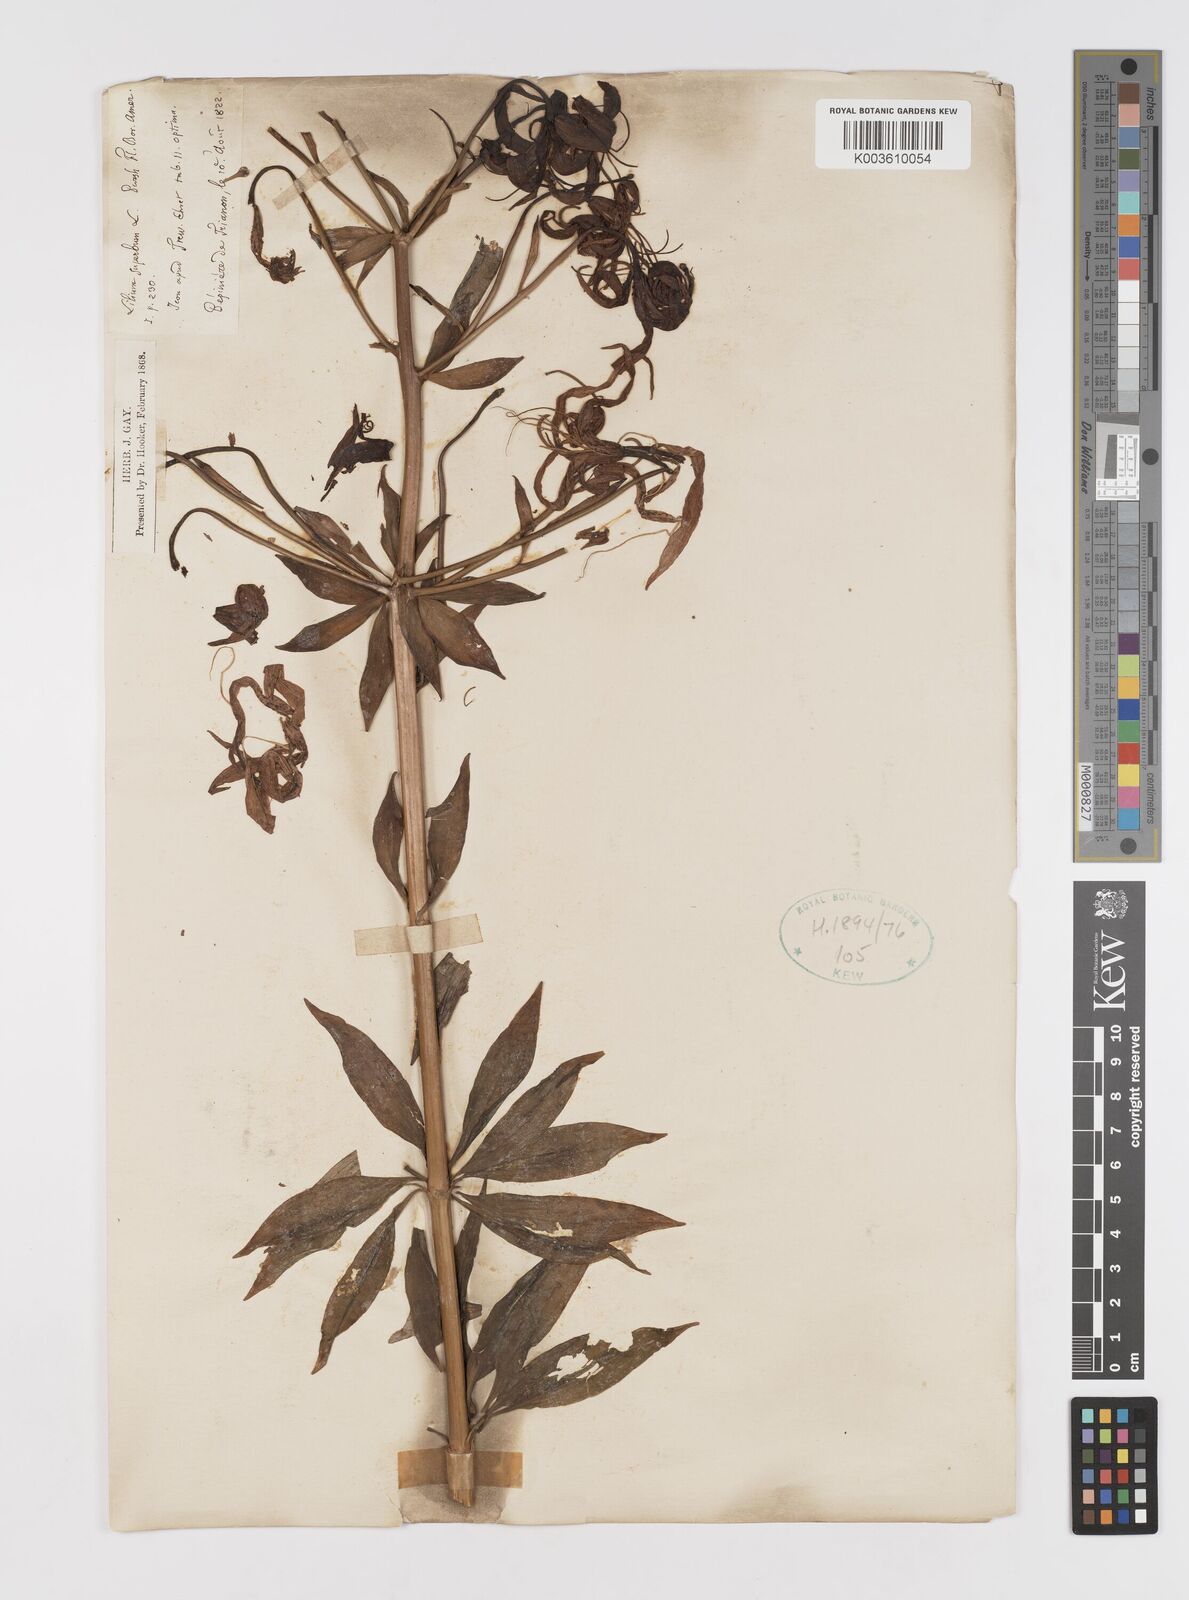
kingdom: Plantae
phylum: Tracheophyta
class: Liliopsida
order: Liliales
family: Liliaceae
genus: Lilium
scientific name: Lilium superbum
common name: American turk's-cap lily
